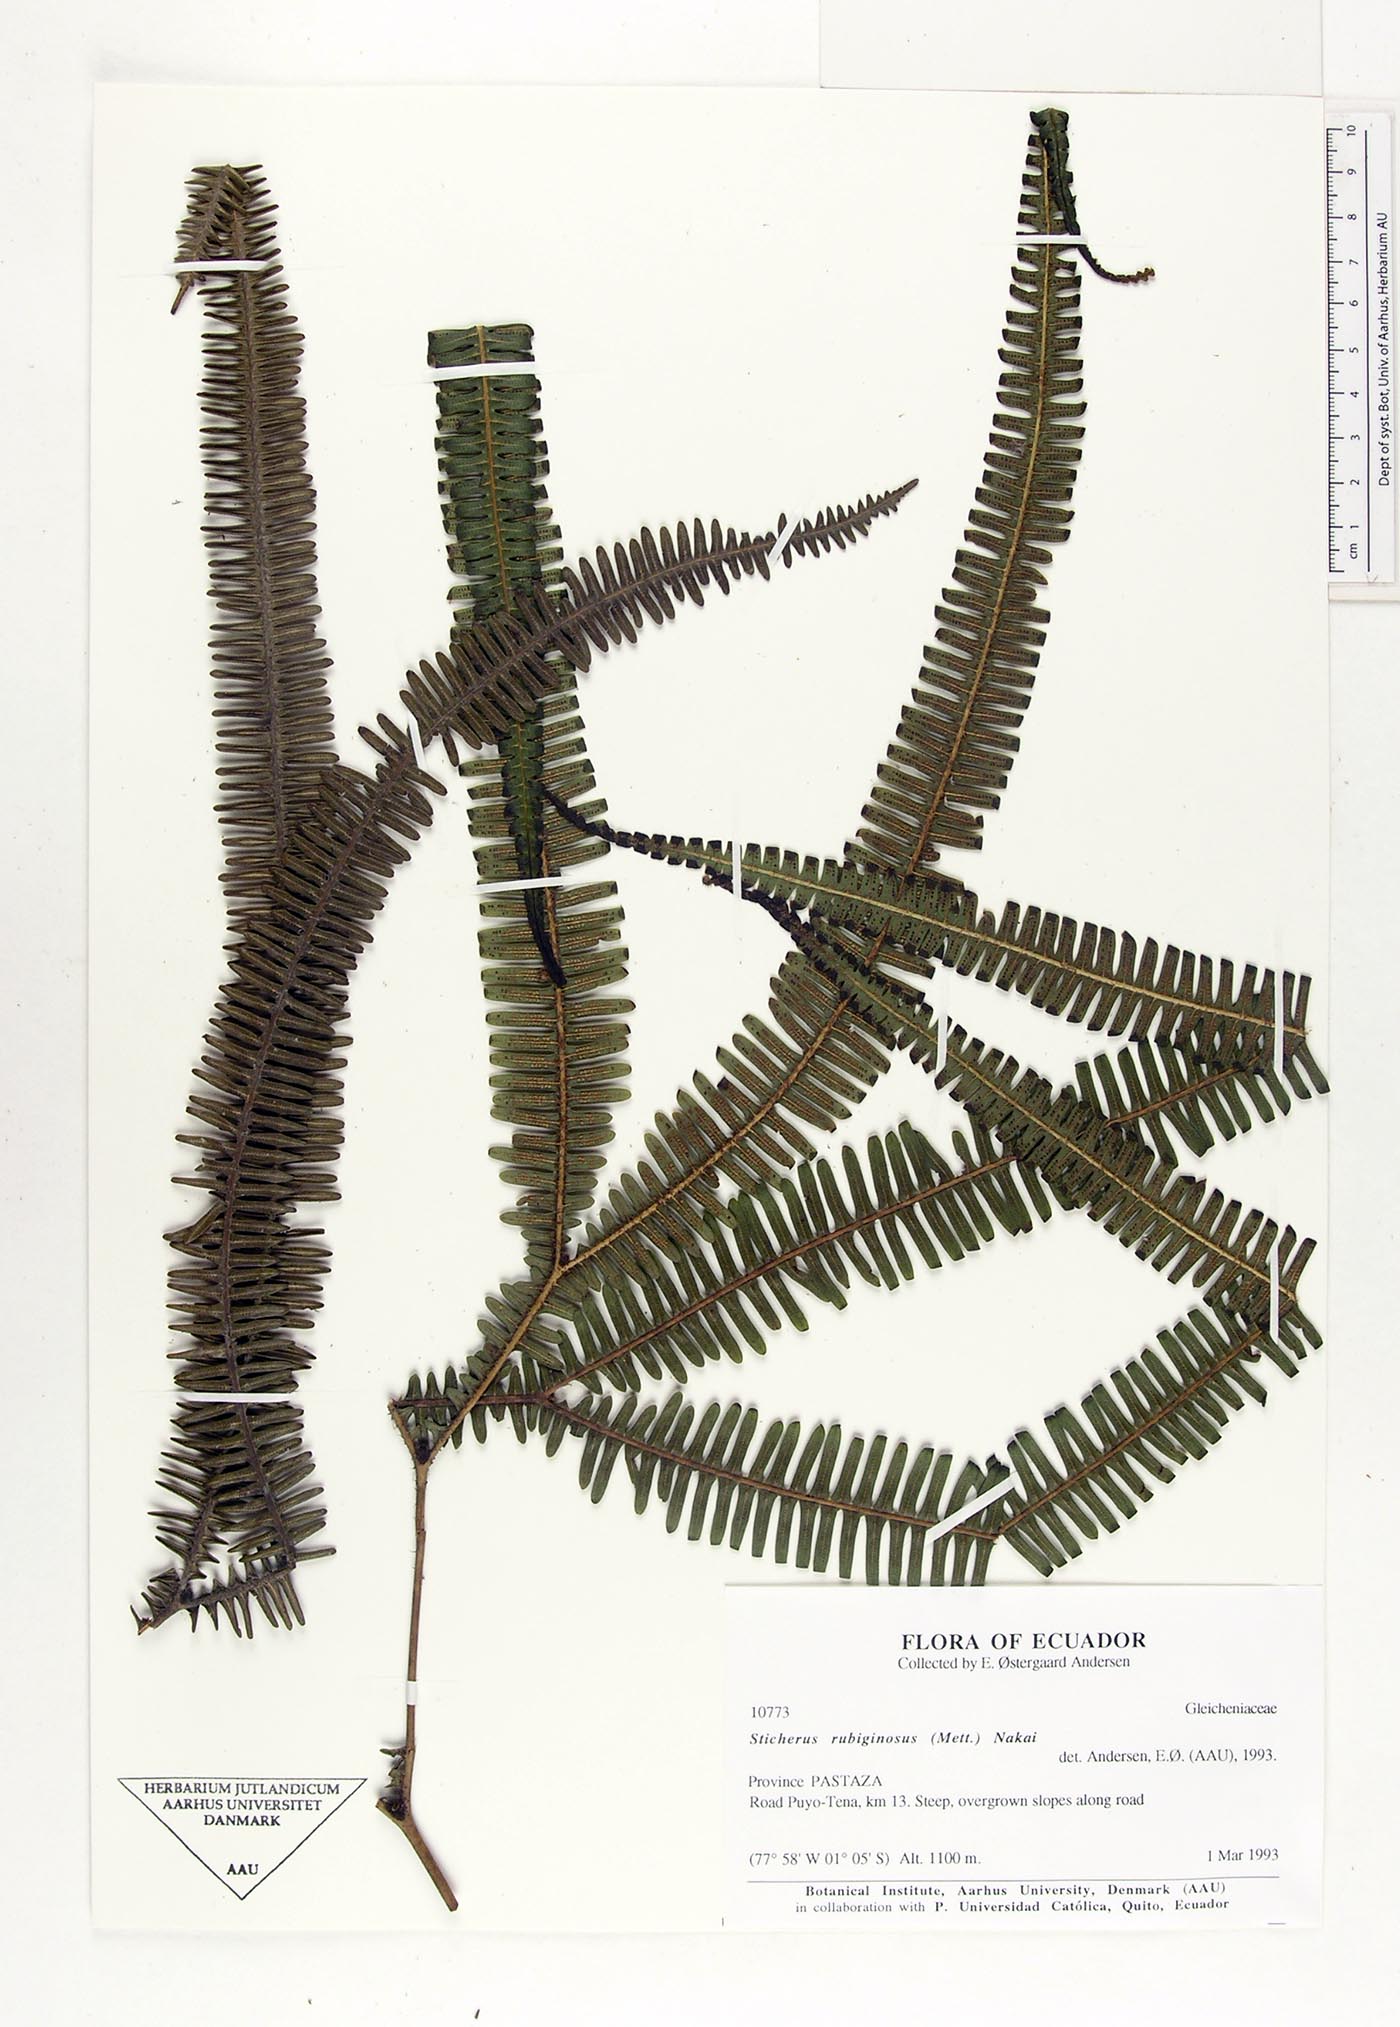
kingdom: Plantae
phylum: Tracheophyta
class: Polypodiopsida
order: Gleicheniales
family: Gleicheniaceae
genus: Sticherus
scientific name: Sticherus rubiginosus
